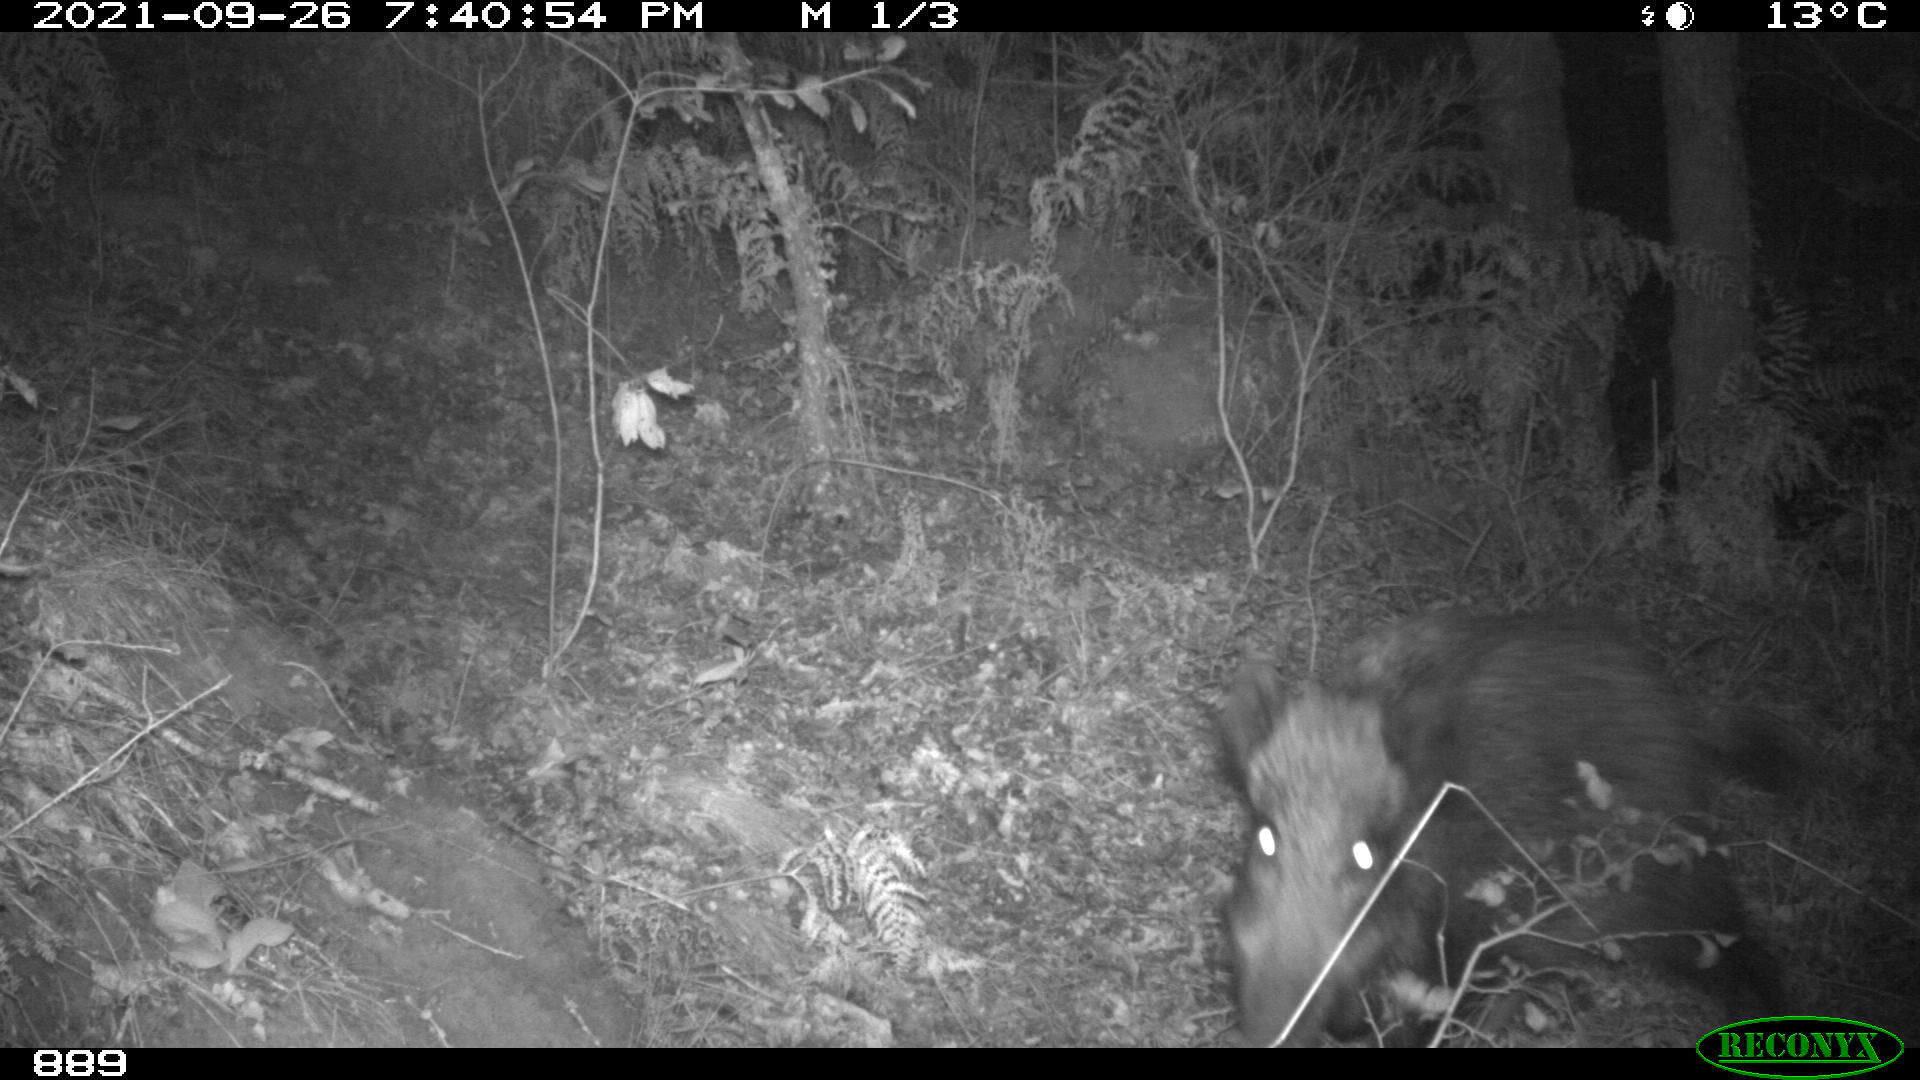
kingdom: Animalia
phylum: Chordata
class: Mammalia
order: Artiodactyla
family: Suidae
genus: Sus
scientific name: Sus scrofa
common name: Wild boar
